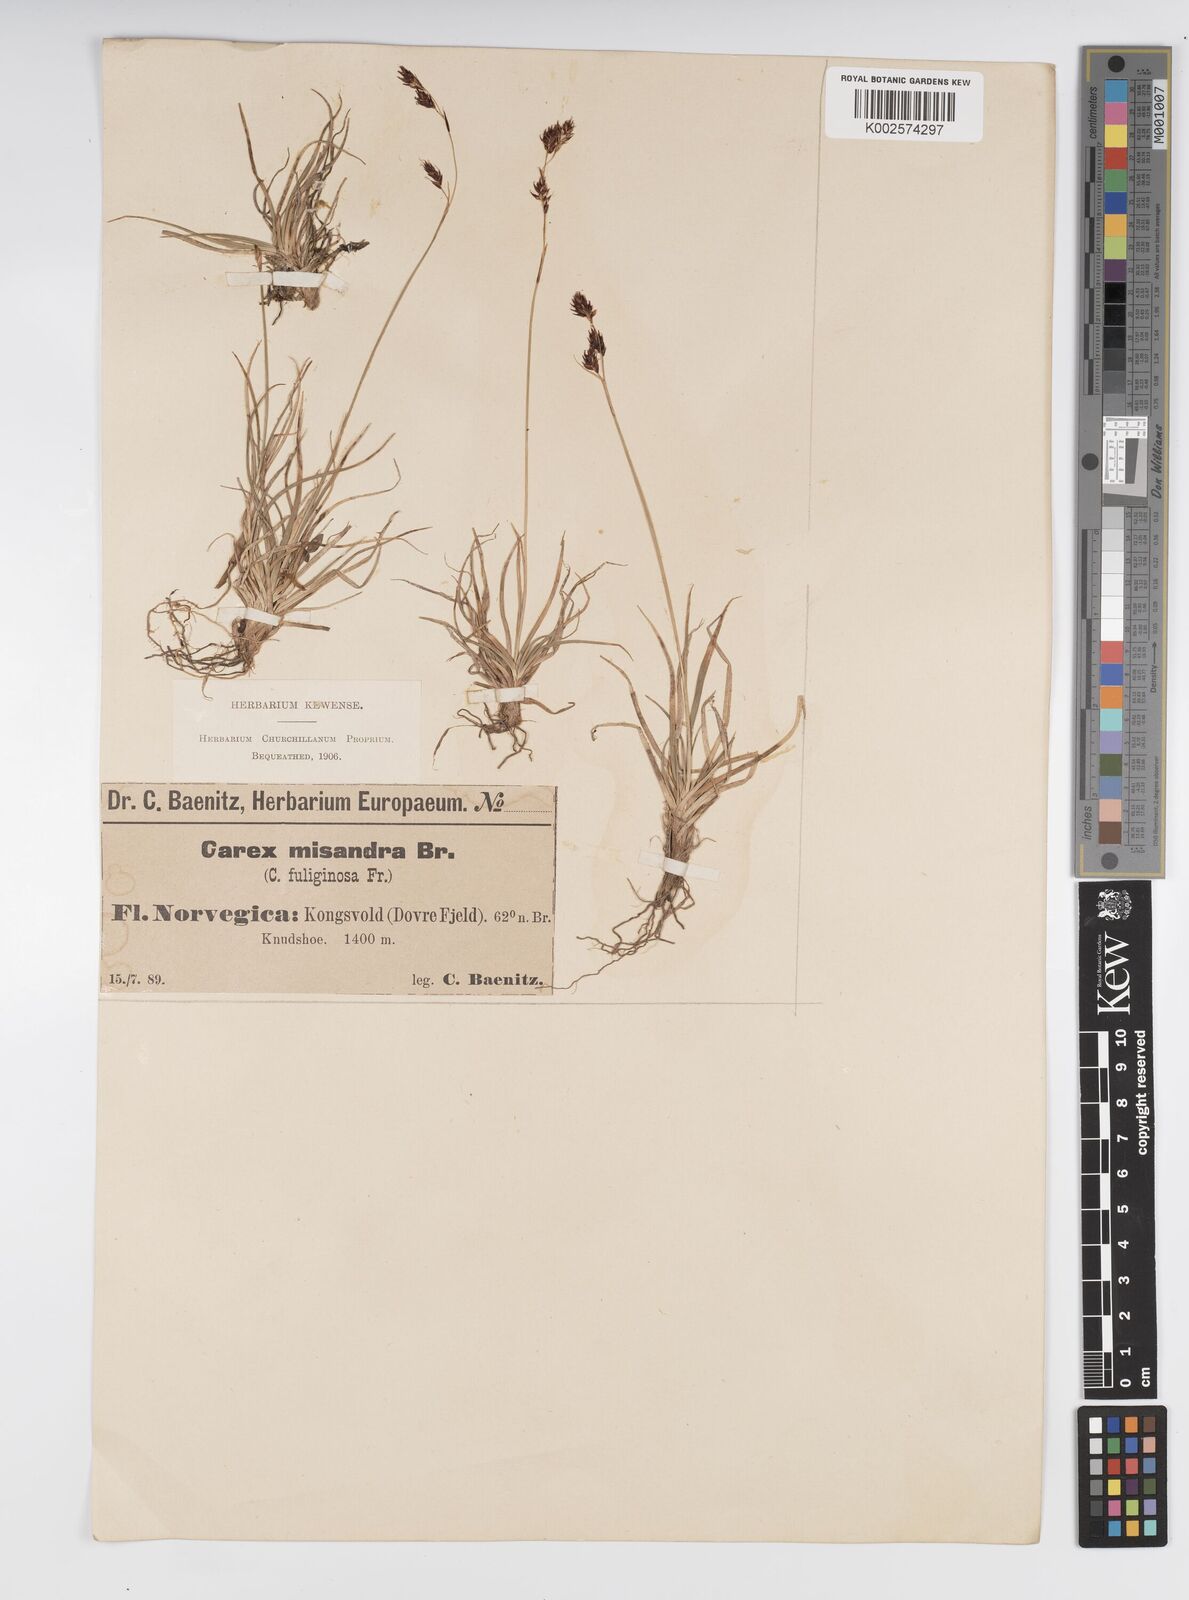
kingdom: Plantae
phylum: Tracheophyta
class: Liliopsida
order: Poales
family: Cyperaceae
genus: Carex
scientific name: Carex fuliginosa
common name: Few-flowered sedge
